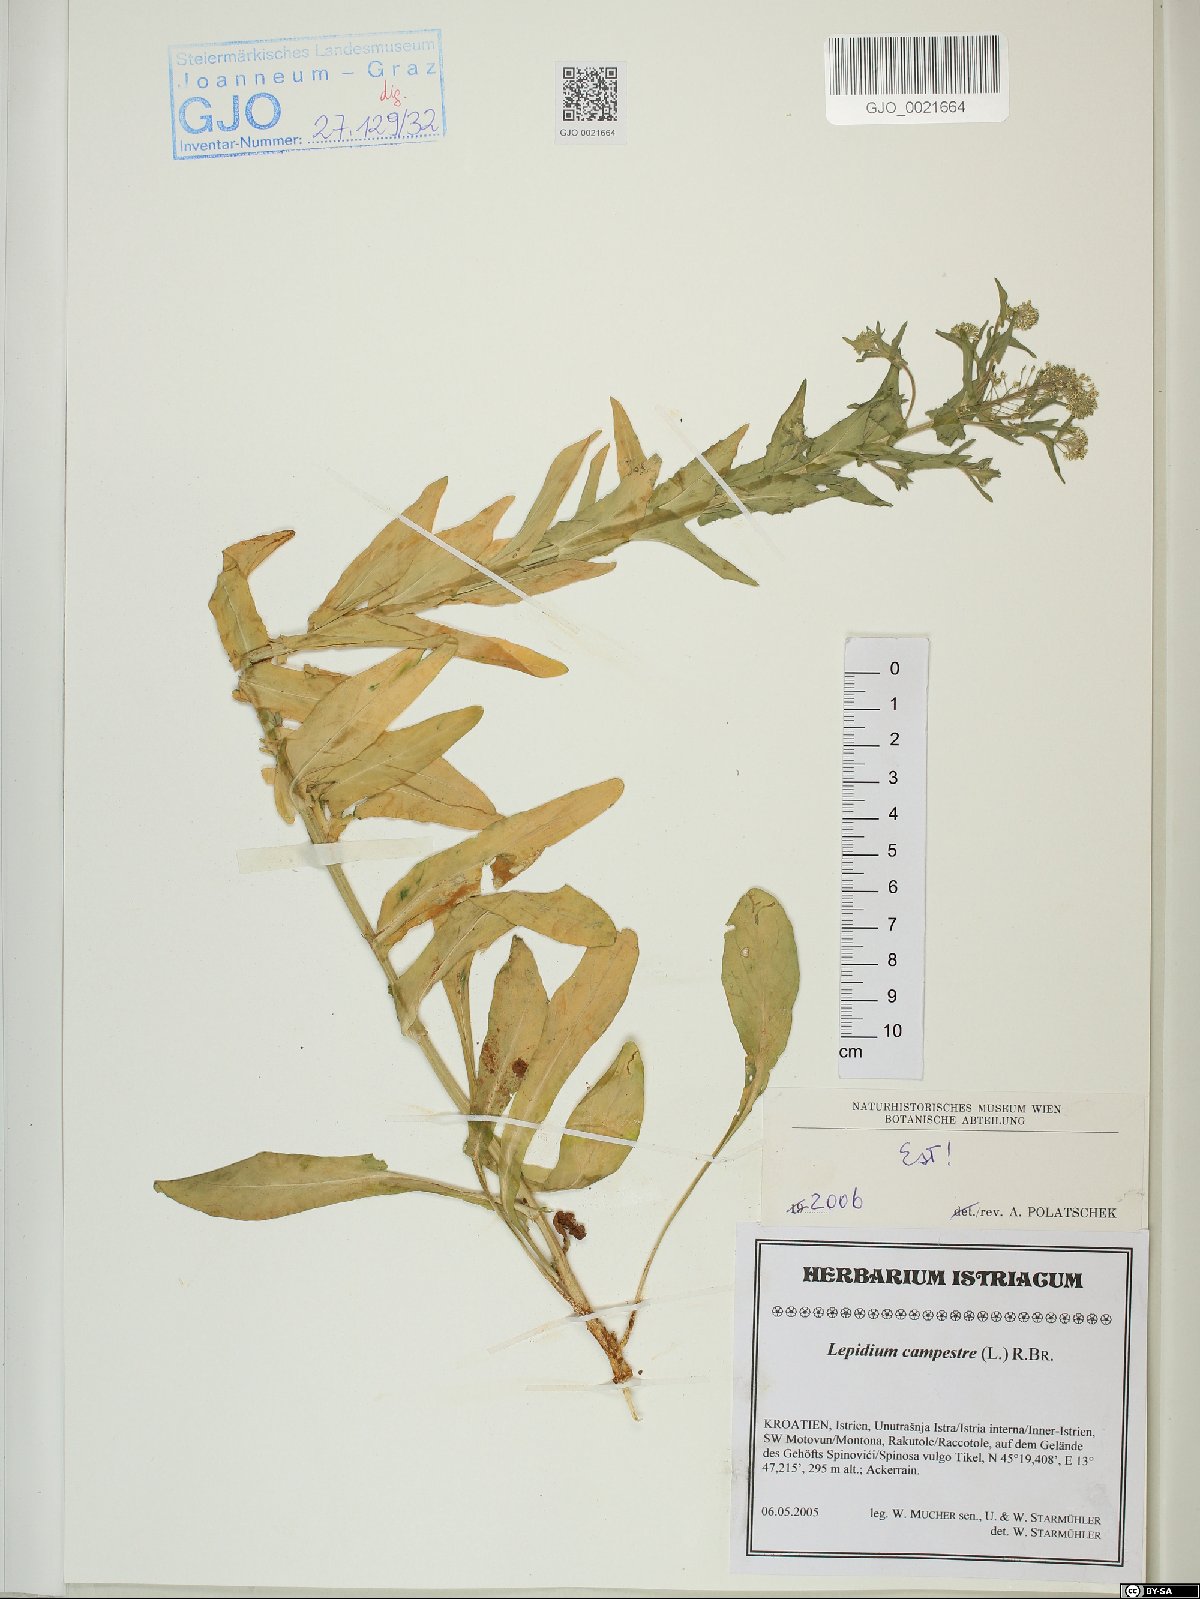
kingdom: Plantae
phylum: Tracheophyta
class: Magnoliopsida
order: Brassicales
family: Brassicaceae
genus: Lepidium
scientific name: Lepidium campestre
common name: Field pepperwort
